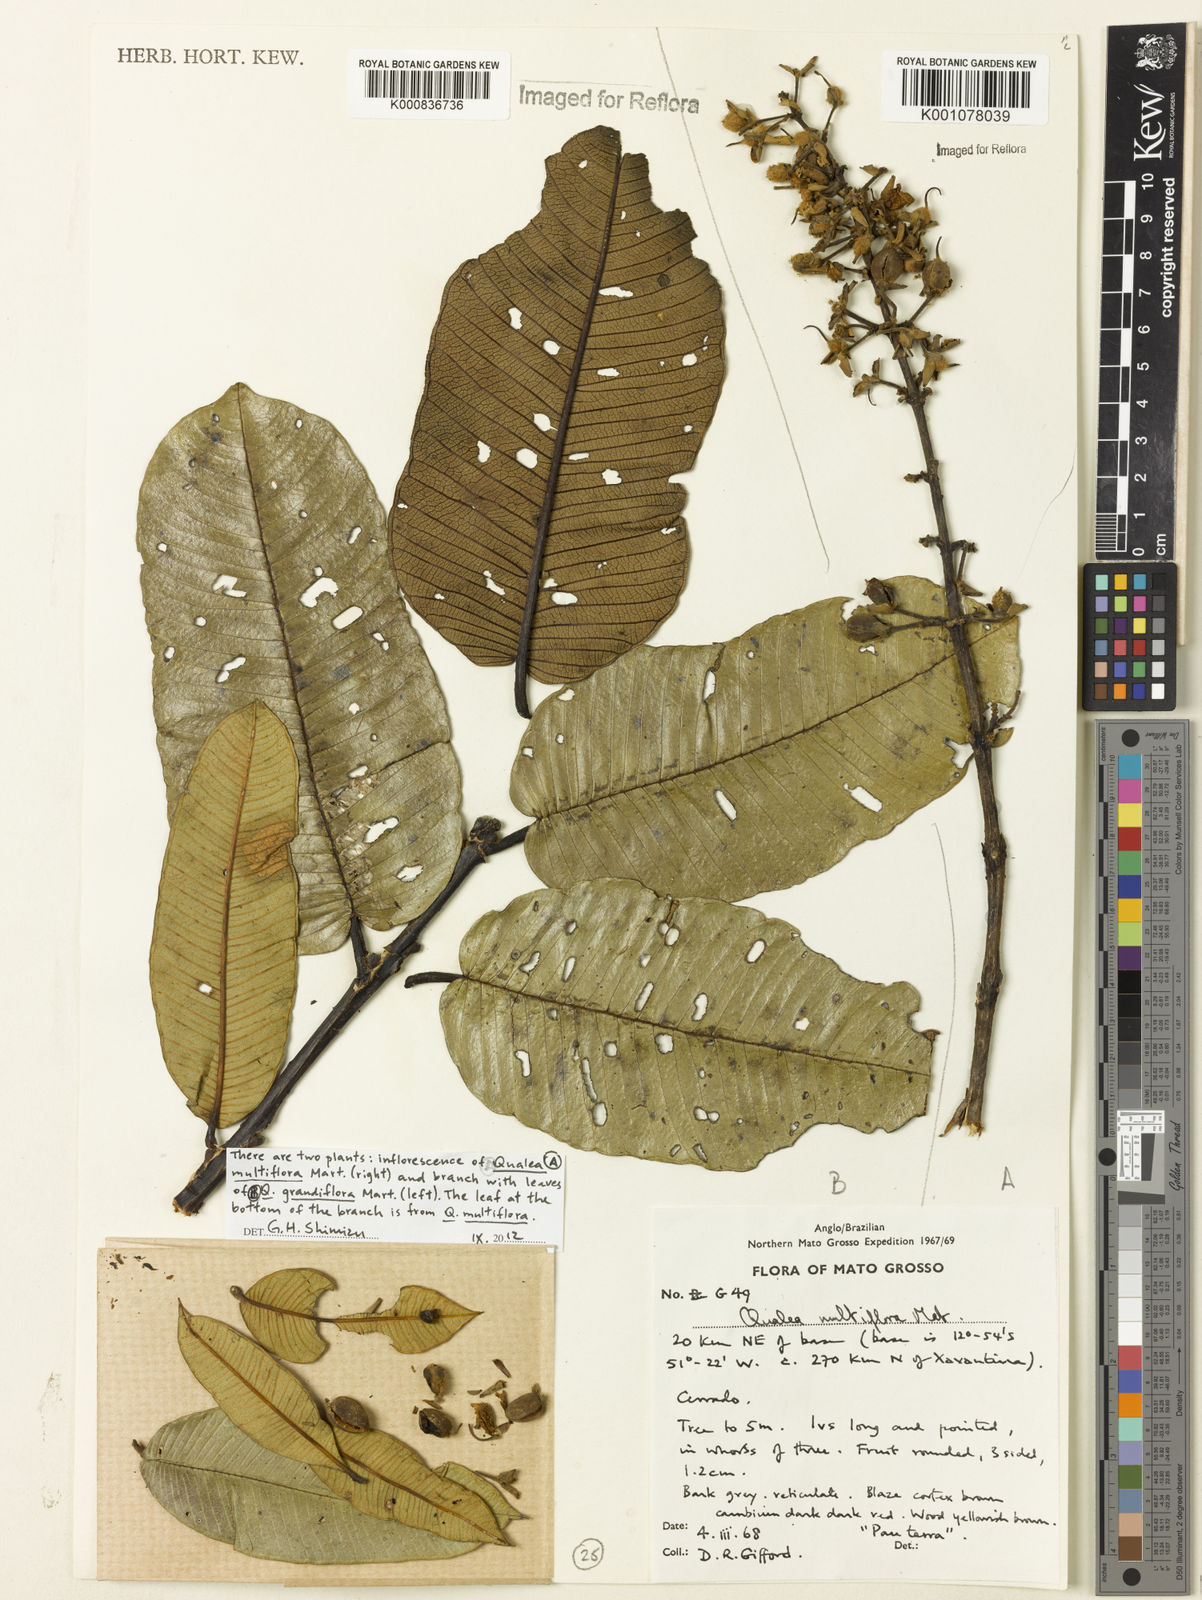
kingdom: Plantae
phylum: Tracheophyta
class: Magnoliopsida
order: Myrtales
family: Vochysiaceae
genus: Qualea
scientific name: Qualea grandiflora
